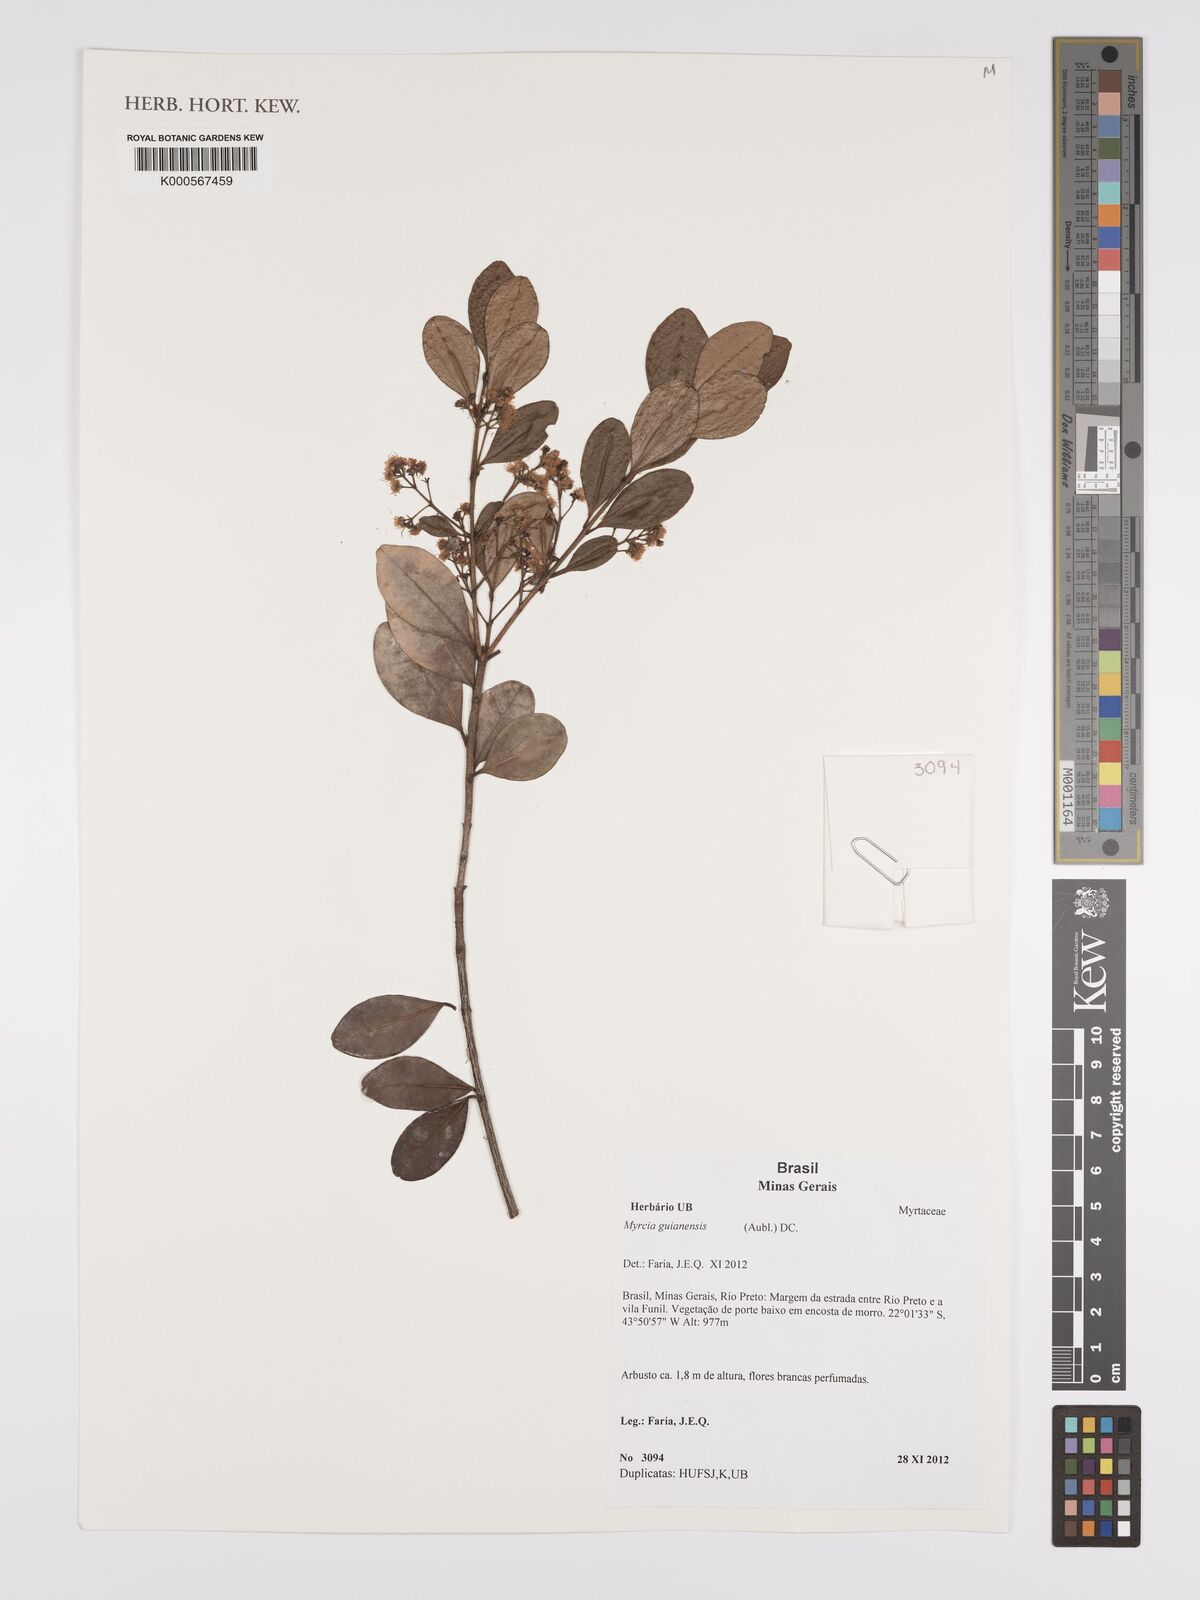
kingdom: Plantae
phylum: Tracheophyta
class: Magnoliopsida
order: Myrtales
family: Myrtaceae
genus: Myrcia
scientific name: Myrcia guianensis
